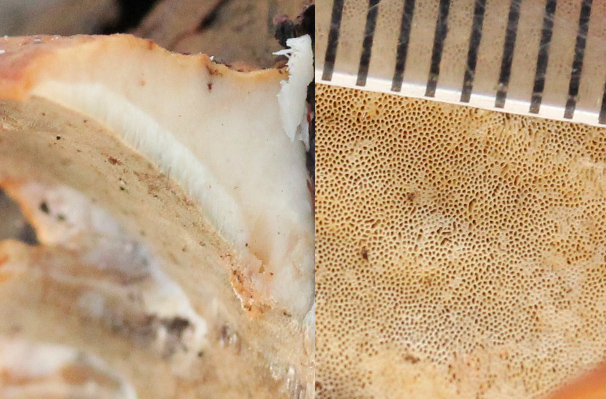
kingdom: Fungi
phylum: Basidiomycota
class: Agaricomycetes
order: Hymenochaetales
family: Oxyporaceae
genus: Oxyporus
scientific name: Oxyporus populinus
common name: sammenvokset trylleporesvamp
